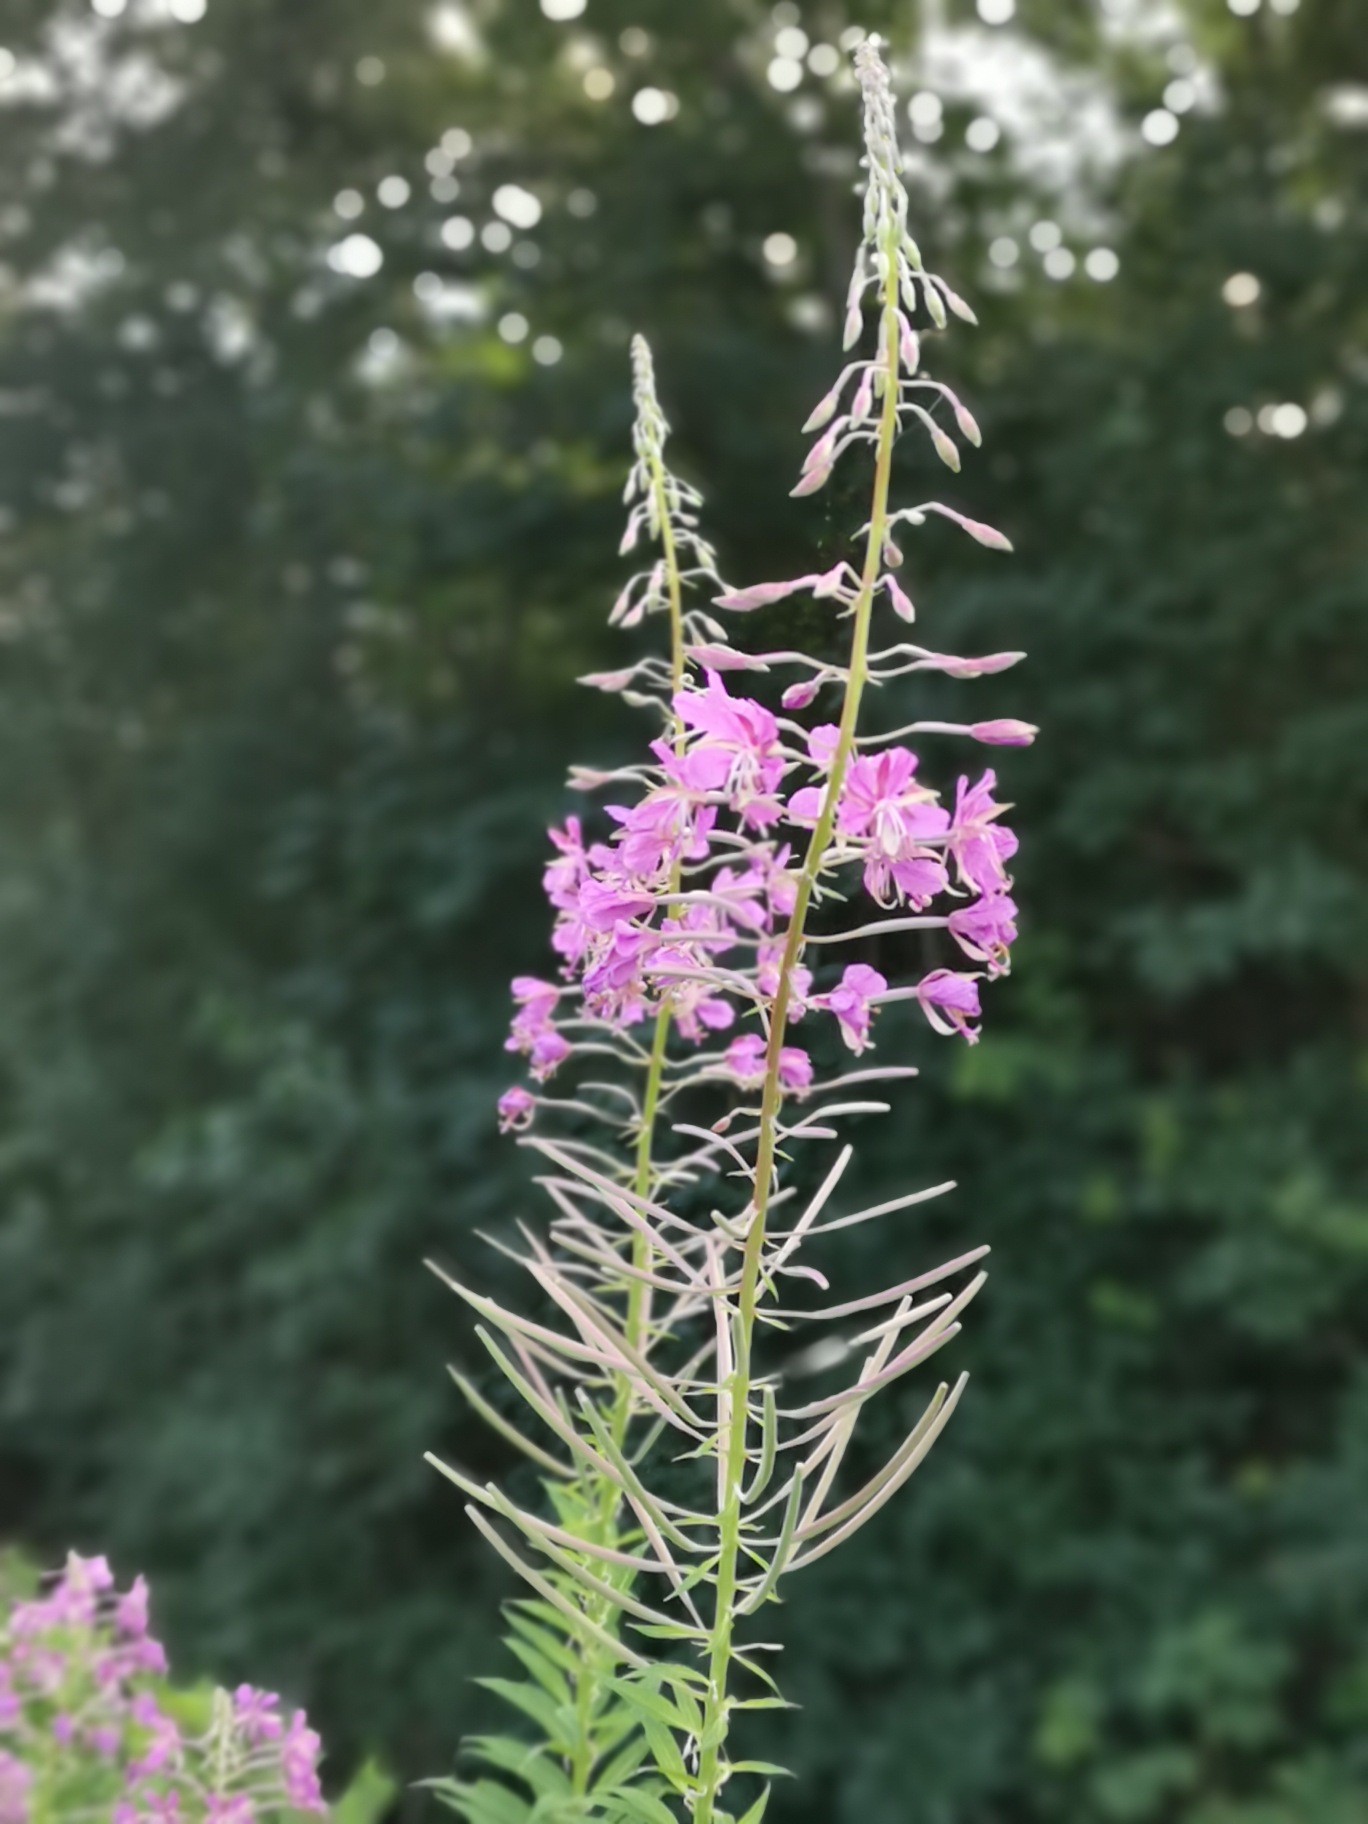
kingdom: Plantae
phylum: Tracheophyta
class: Magnoliopsida
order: Myrtales
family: Onagraceae
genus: Chamaenerion
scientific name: Chamaenerion angustifolium
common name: Gederams
